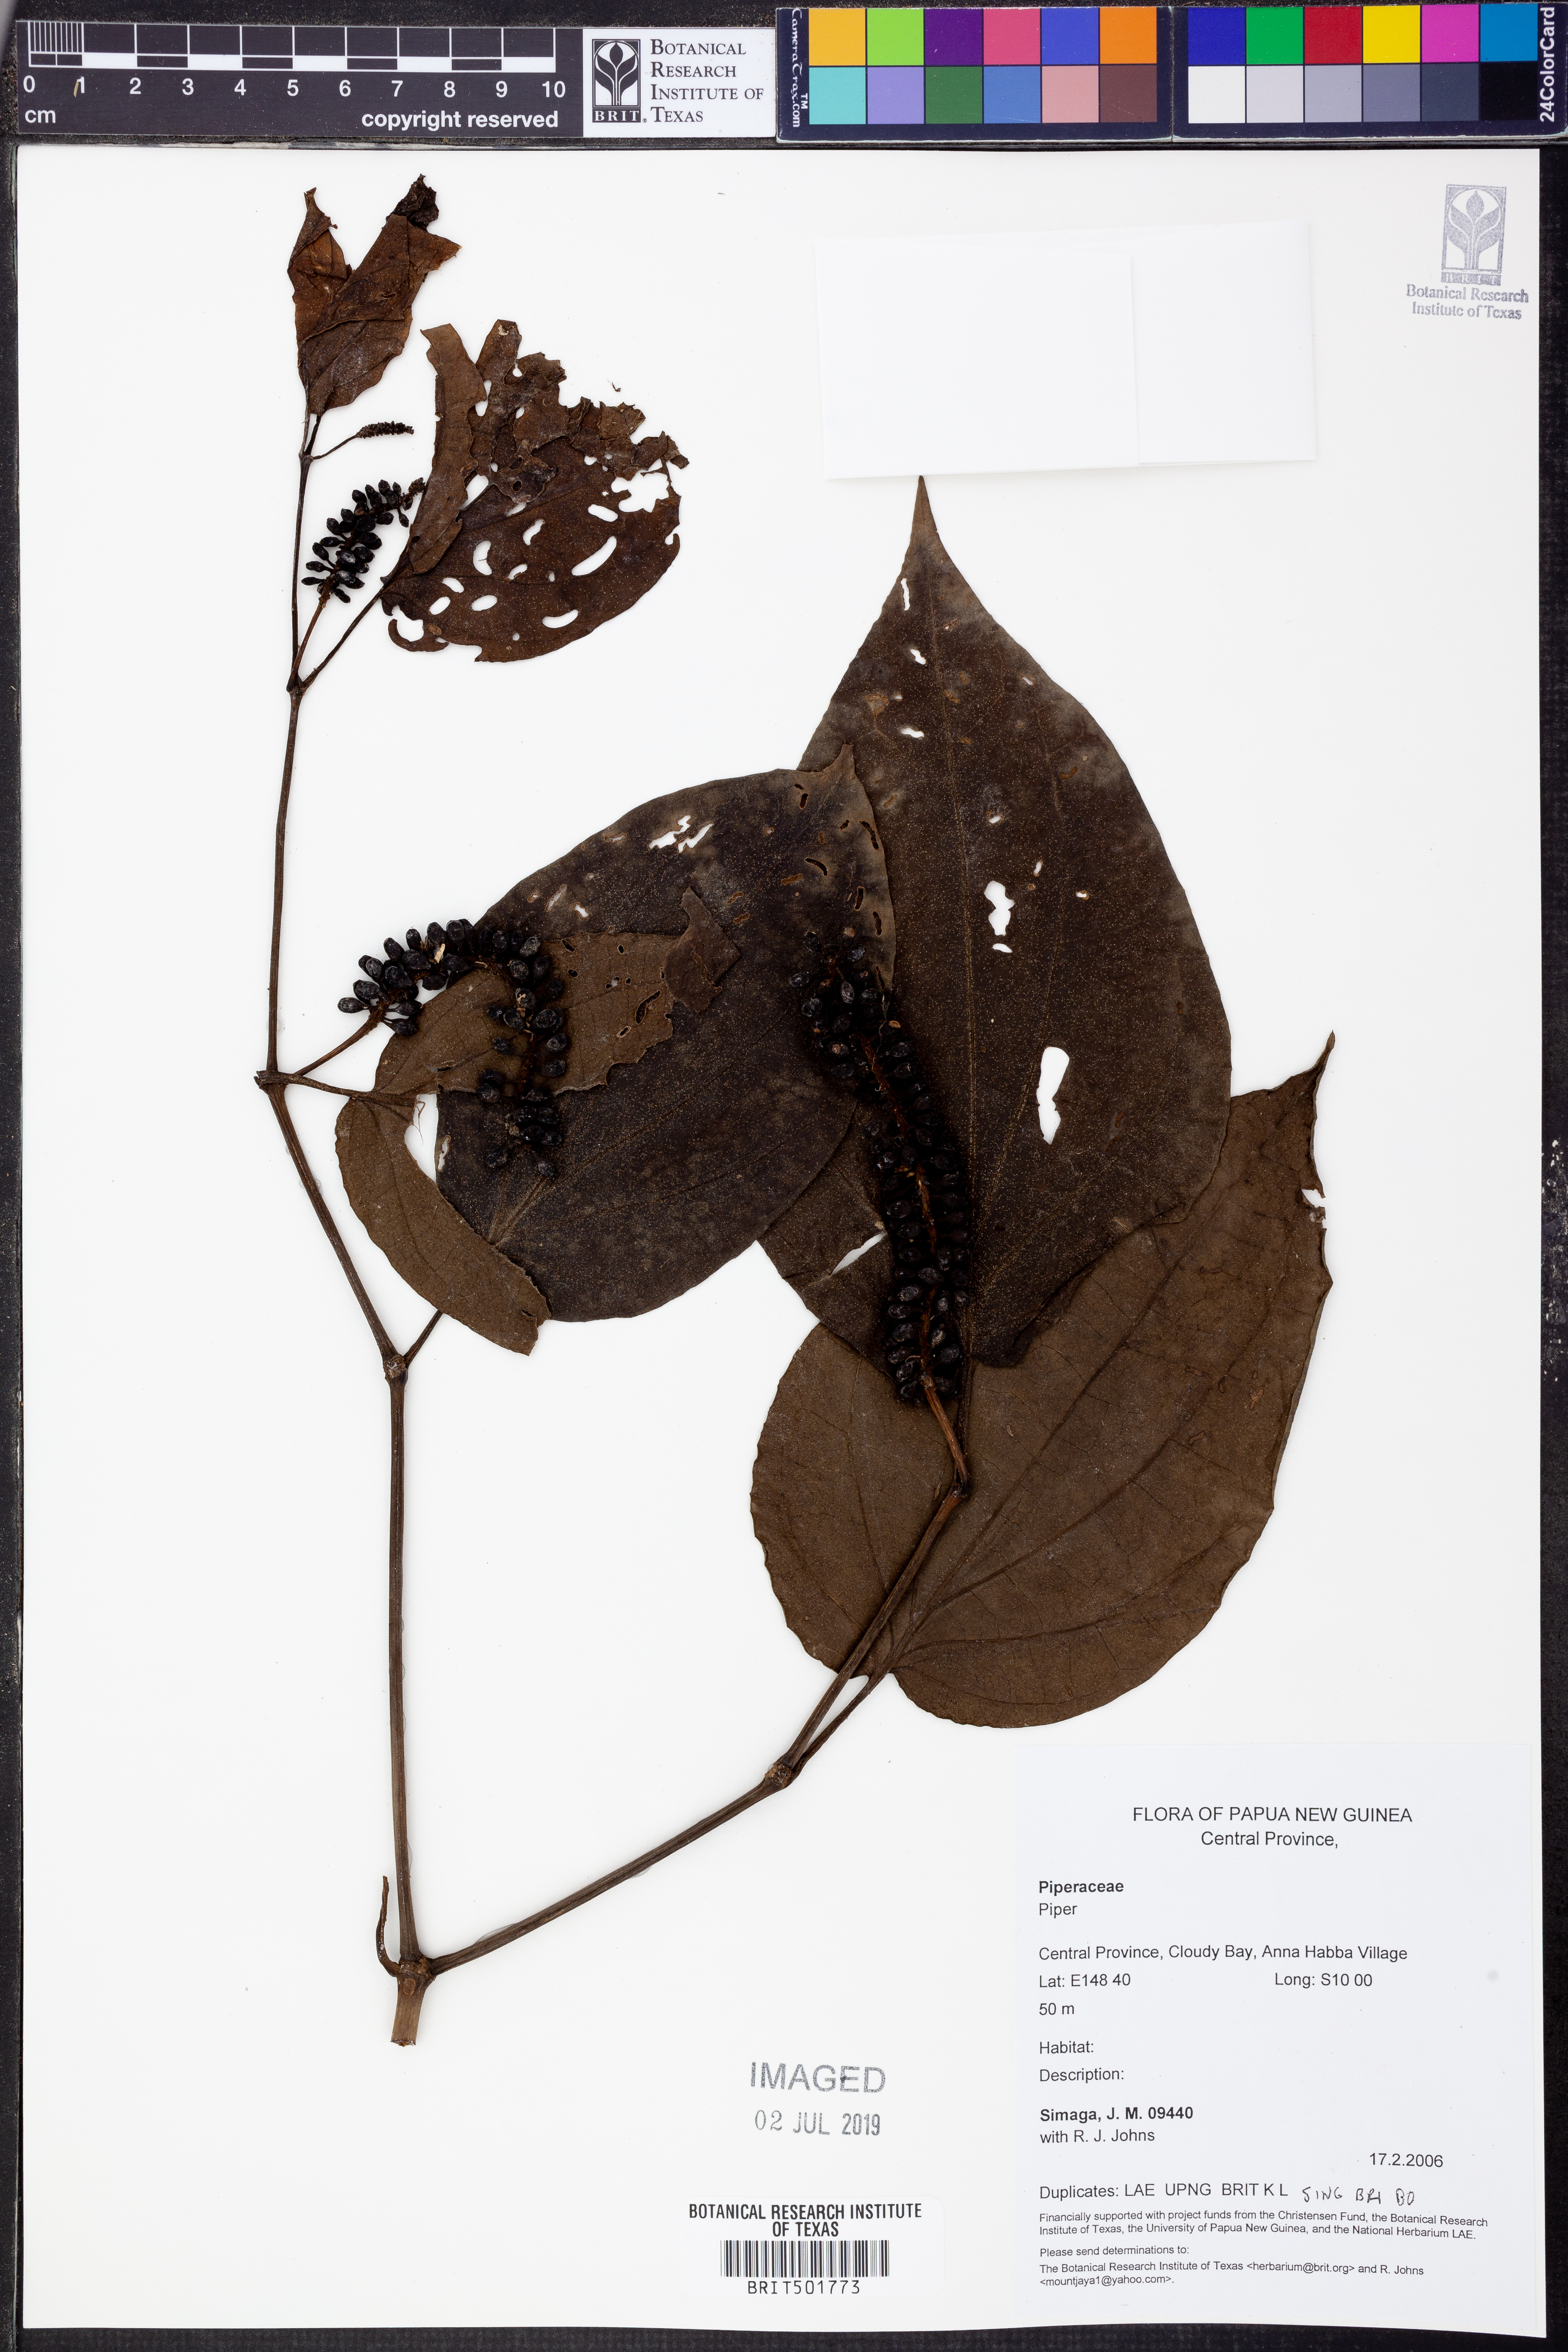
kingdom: Plantae
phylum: Tracheophyta
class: Magnoliopsida
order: Piperales
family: Piperaceae
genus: Piper
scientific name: Piper
